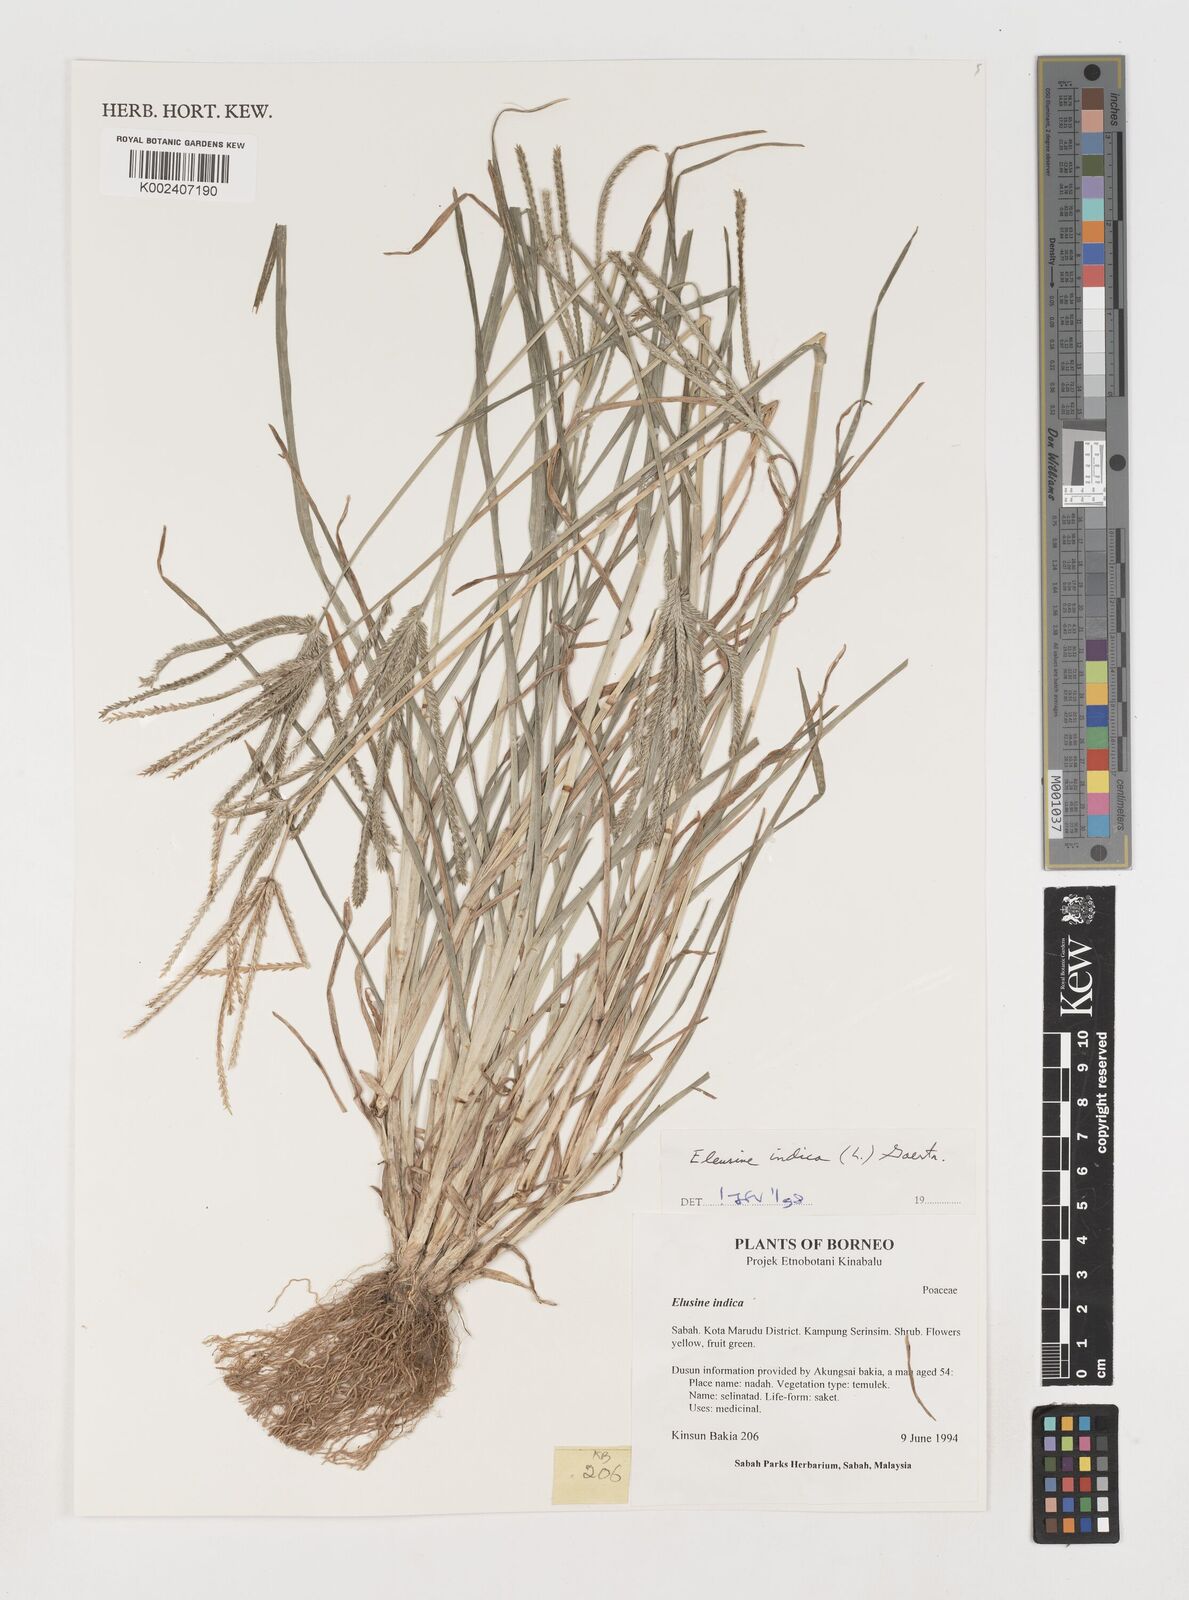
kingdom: Plantae
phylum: Tracheophyta
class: Liliopsida
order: Poales
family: Poaceae
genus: Eleusine
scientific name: Eleusine indica
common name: Yard-grass
